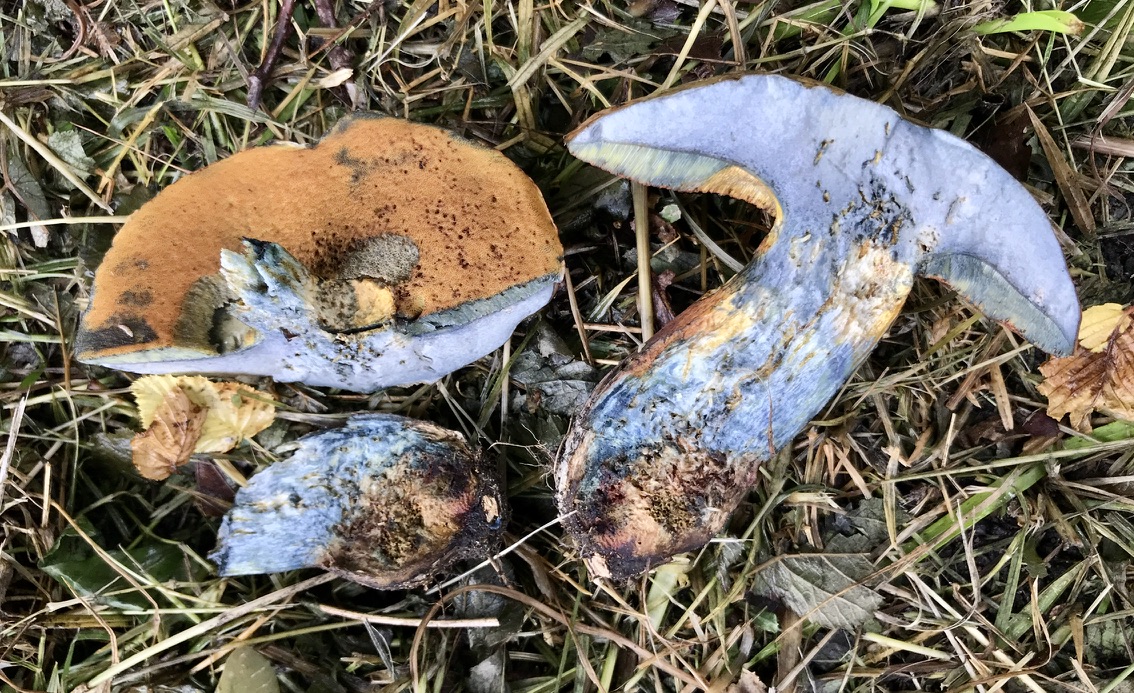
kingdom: Fungi
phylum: Basidiomycota
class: Agaricomycetes
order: Boletales
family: Boletaceae
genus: Suillellus
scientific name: Suillellus luridus
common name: netstokket indigorørhat
